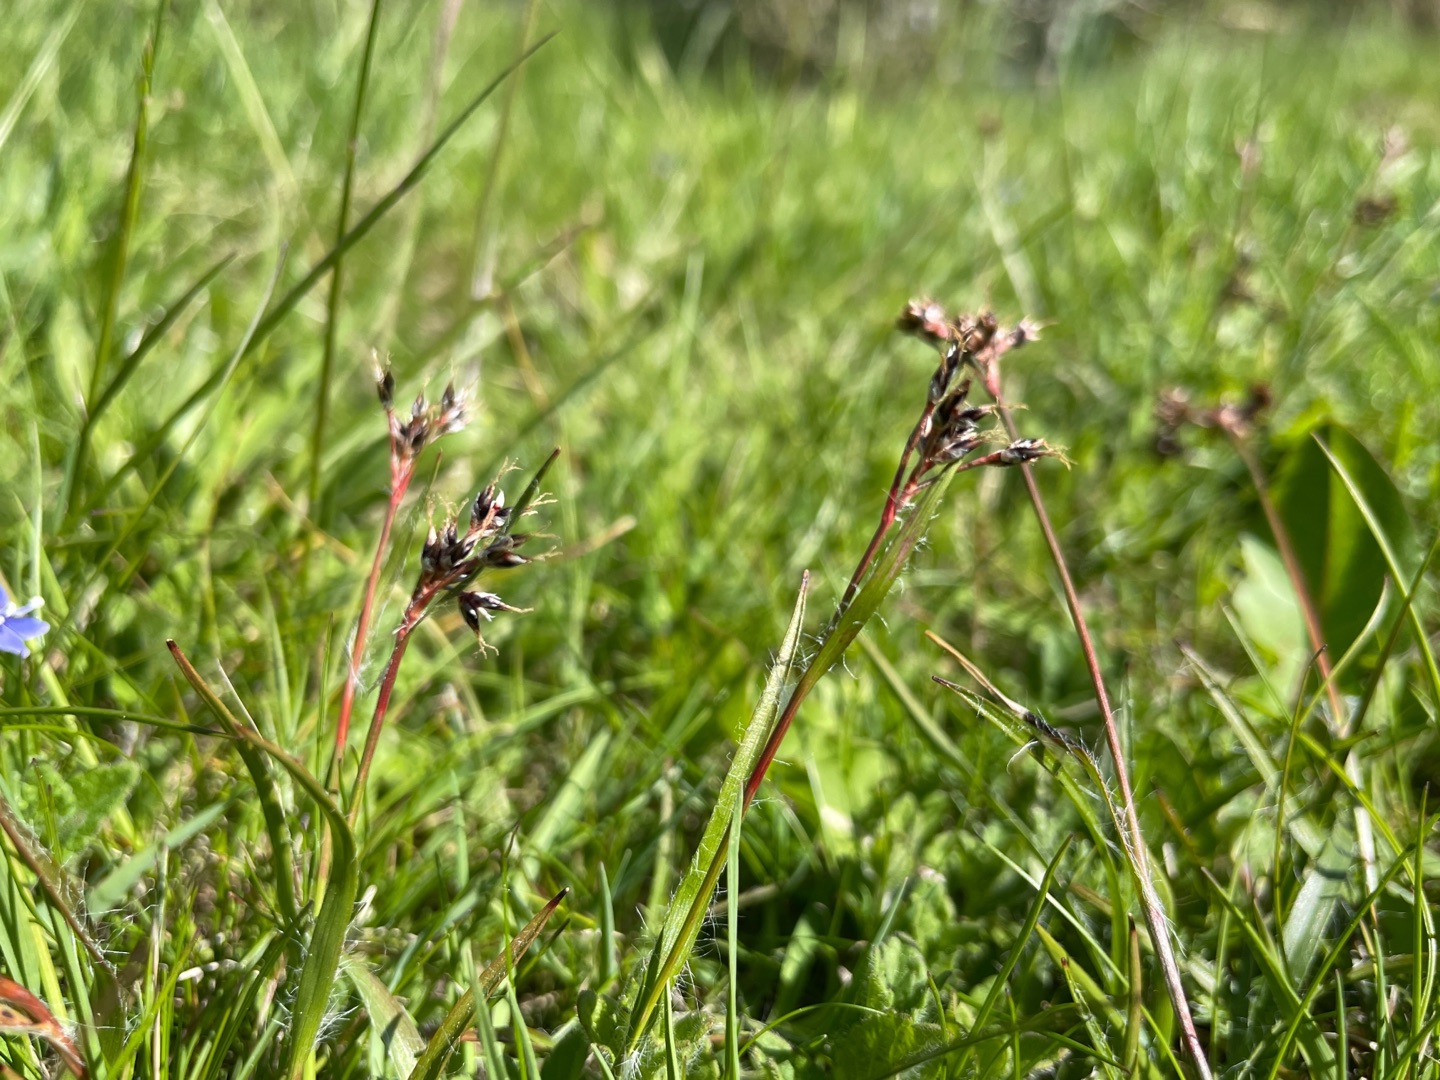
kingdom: Plantae
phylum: Tracheophyta
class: Liliopsida
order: Poales
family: Juncaceae
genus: Luzula
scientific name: Luzula campestris
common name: Mark-frytle
